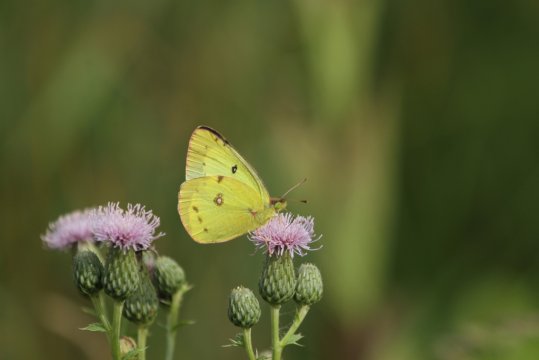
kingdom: Animalia
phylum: Arthropoda
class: Insecta
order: Lepidoptera
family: Pieridae
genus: Colias
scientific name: Colias philodice
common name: Clouded Sulphur
